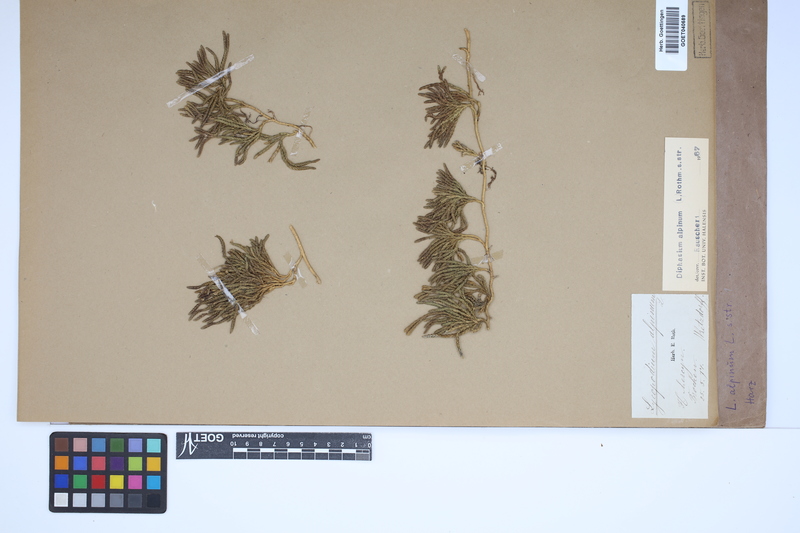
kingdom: Plantae
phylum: Tracheophyta
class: Lycopodiopsida
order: Lycopodiales
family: Lycopodiaceae
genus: Diphasiastrum
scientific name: Diphasiastrum alpinum
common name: Alpine clubmoss
